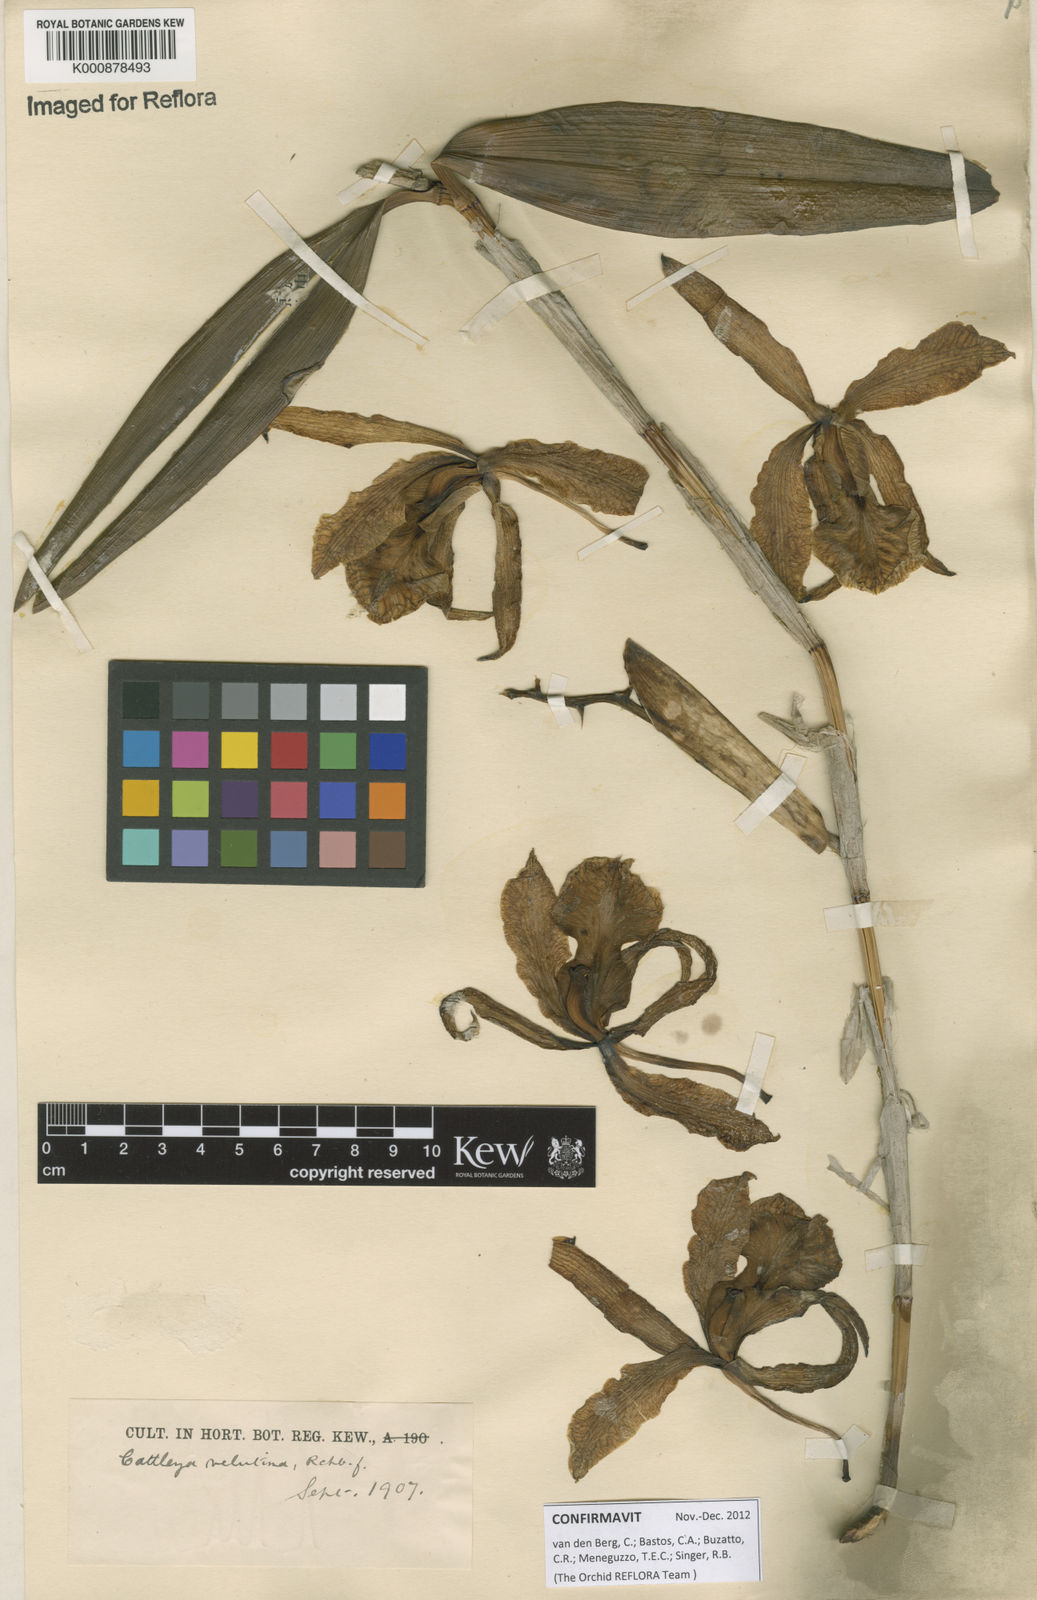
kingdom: Plantae
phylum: Tracheophyta
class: Liliopsida
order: Asparagales
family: Orchidaceae
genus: Cattleya
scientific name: Cattleya velutina
